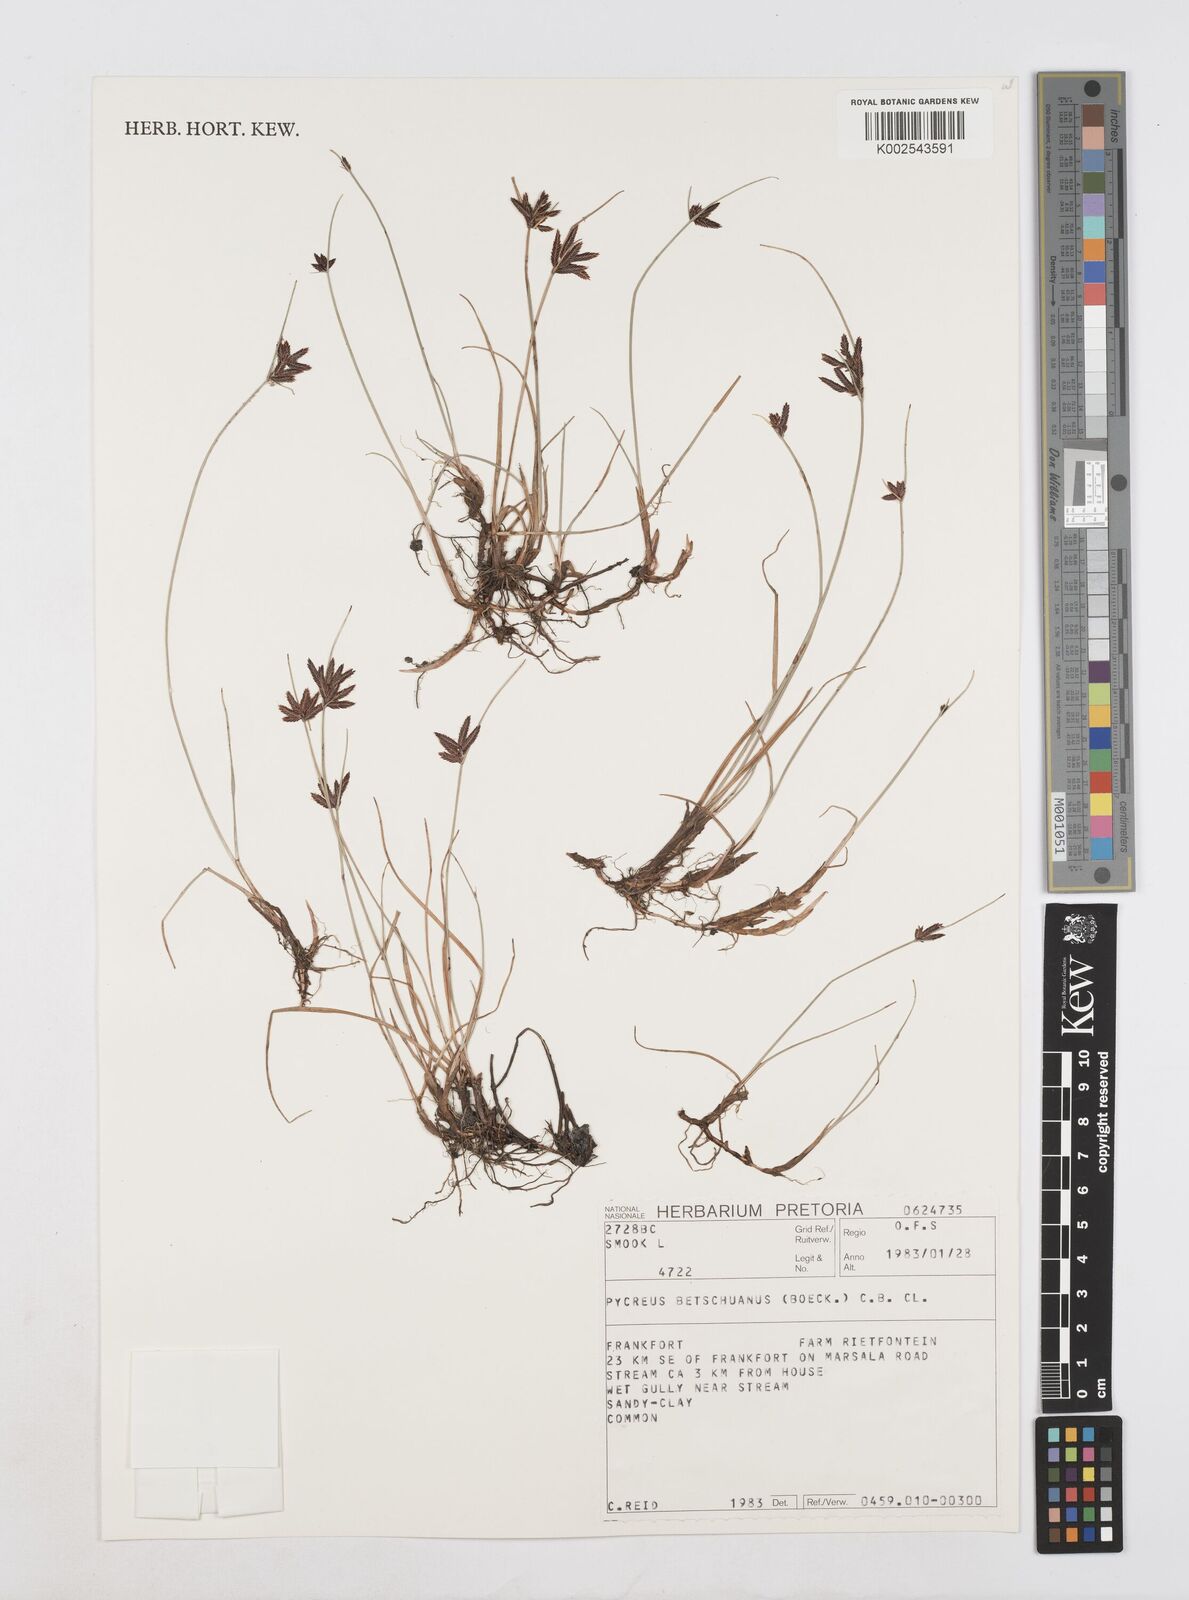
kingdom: Plantae
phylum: Tracheophyta
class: Liliopsida
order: Poales
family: Cyperaceae
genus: Cyperus
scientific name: Cyperus aethiops
